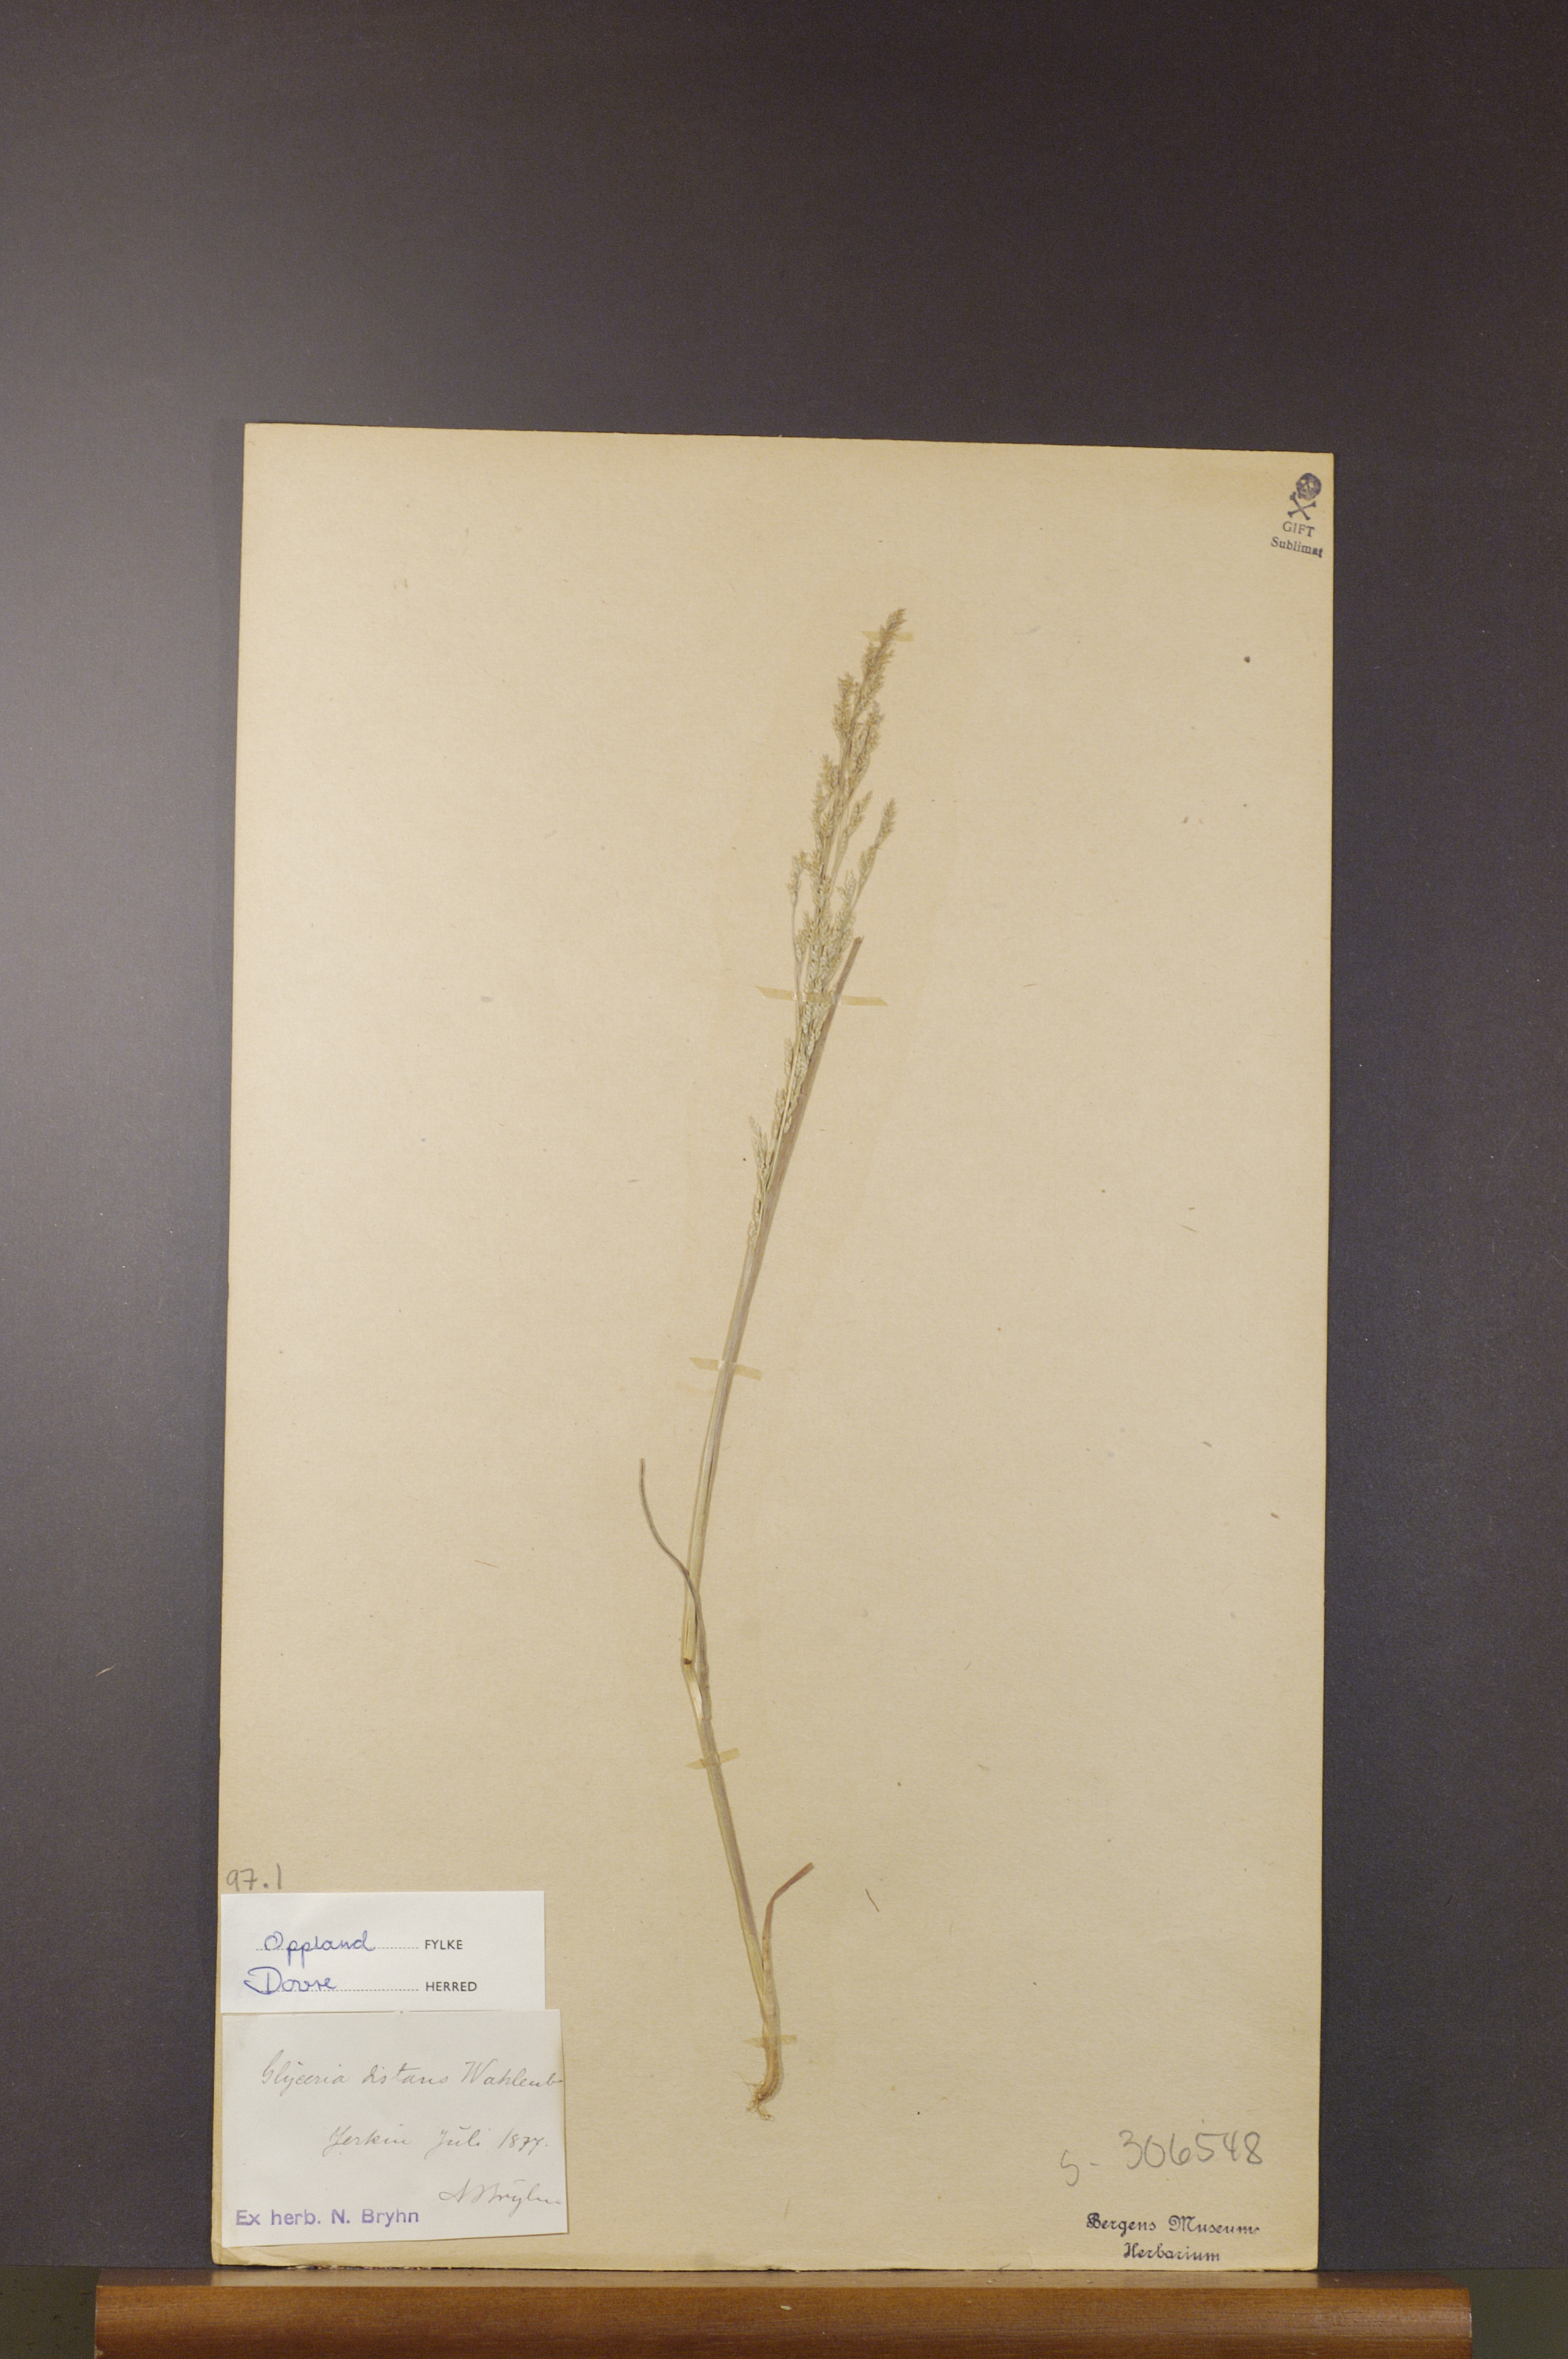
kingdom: Plantae
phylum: Tracheophyta
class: Liliopsida
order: Poales
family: Poaceae
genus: Puccinellia
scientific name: Puccinellia distans
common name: Weeping alkaligrass
